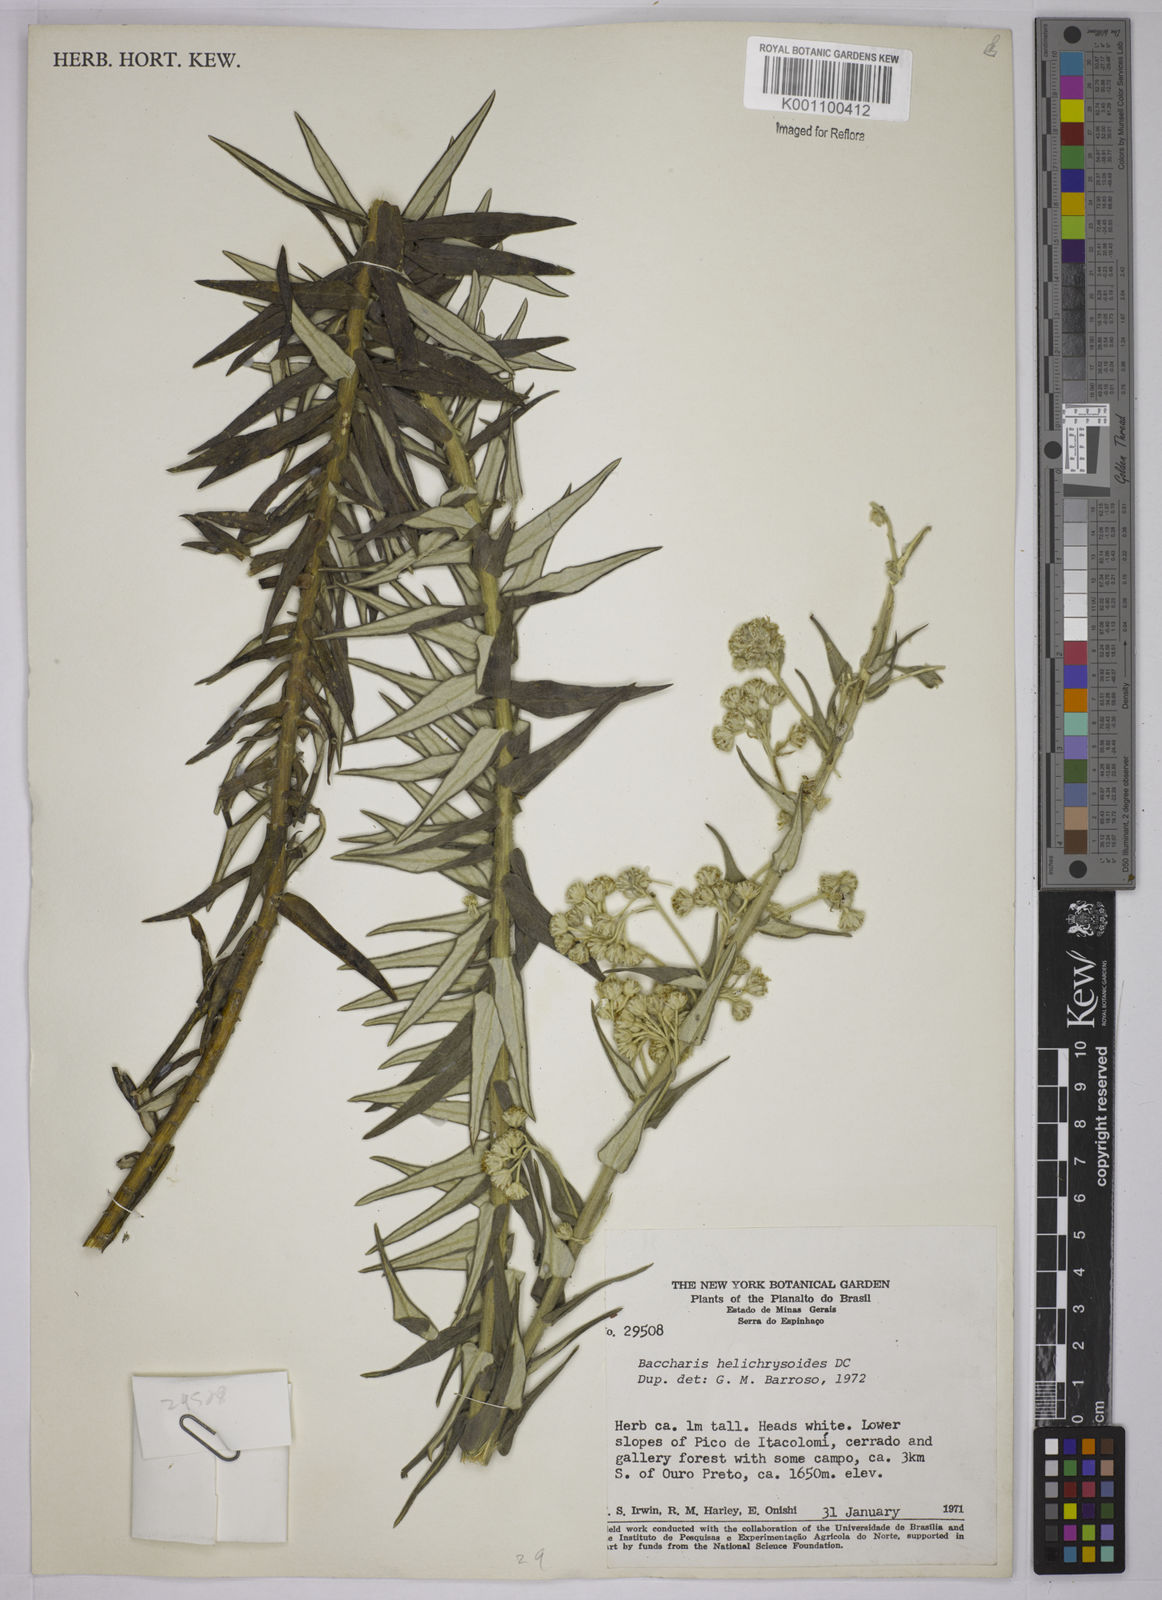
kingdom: Plantae
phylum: Tracheophyta
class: Magnoliopsida
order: Asterales
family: Asteraceae
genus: Baccharis
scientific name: Baccharis helichrysoides
